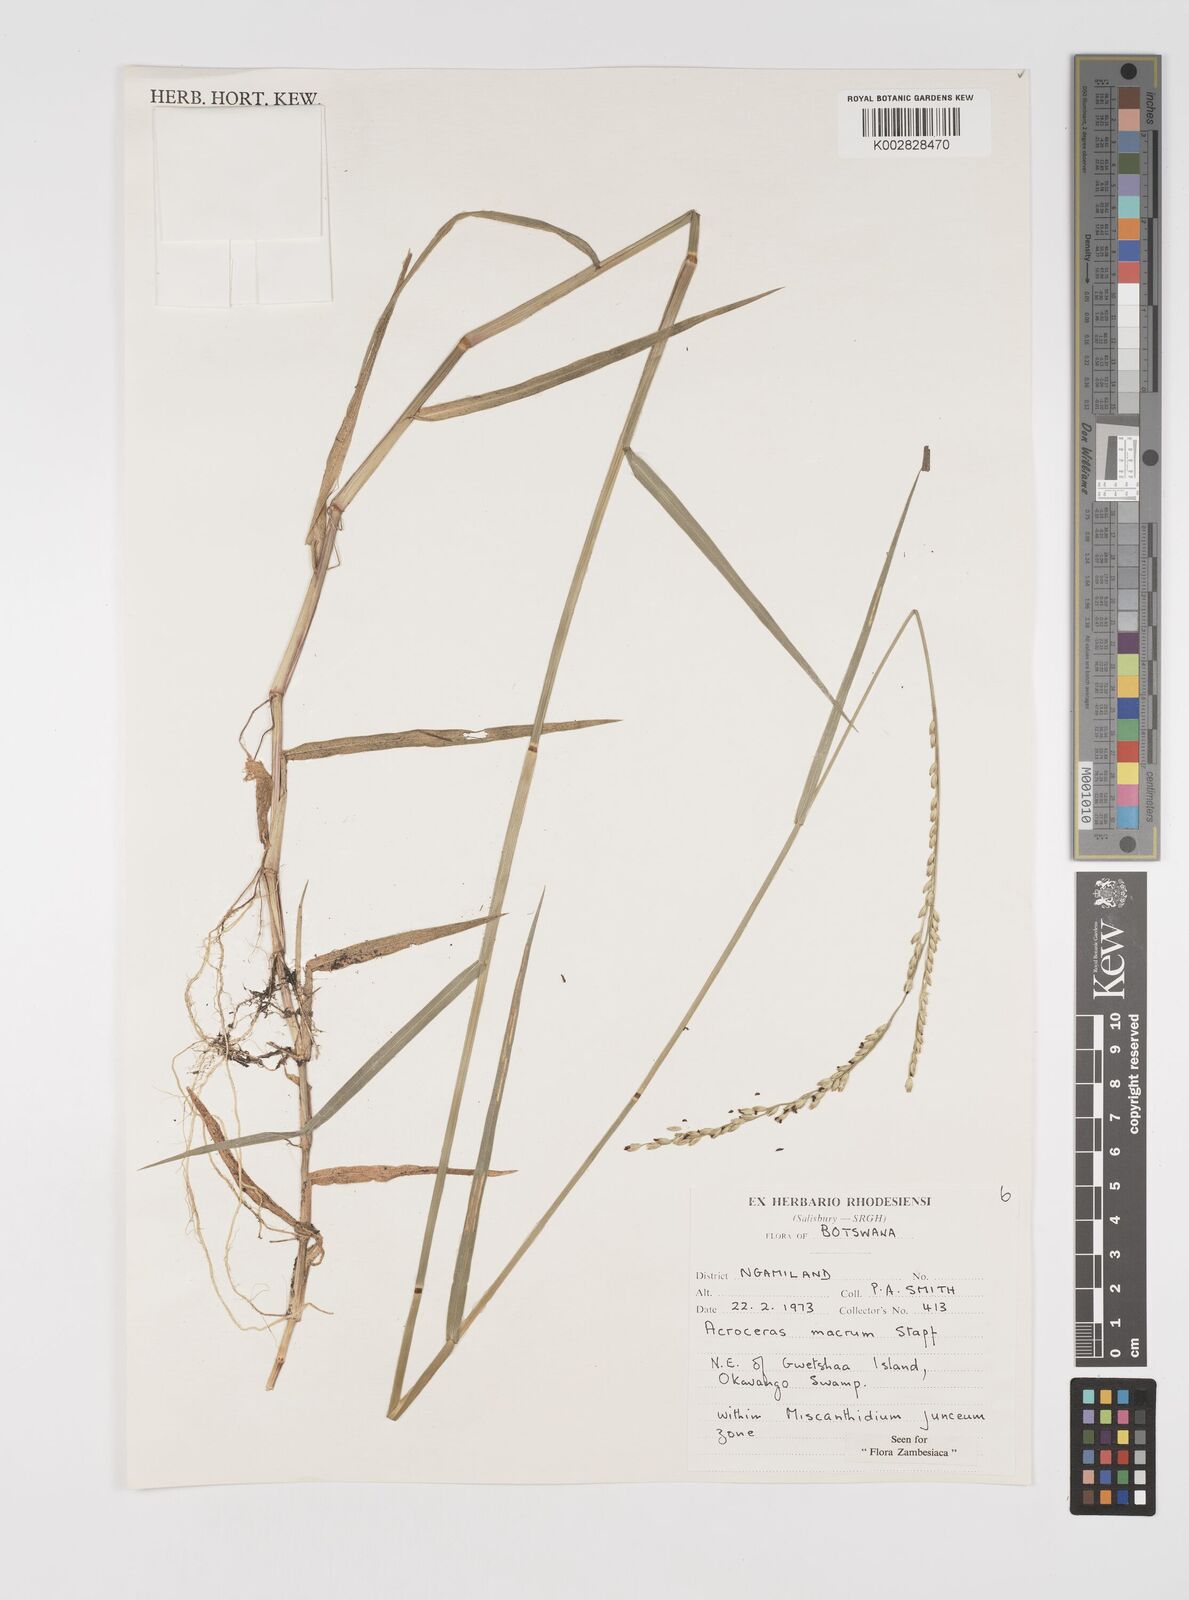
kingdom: Plantae
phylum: Tracheophyta
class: Liliopsida
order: Poales
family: Poaceae
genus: Acroceras
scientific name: Acroceras macrum
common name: Nyl grass
